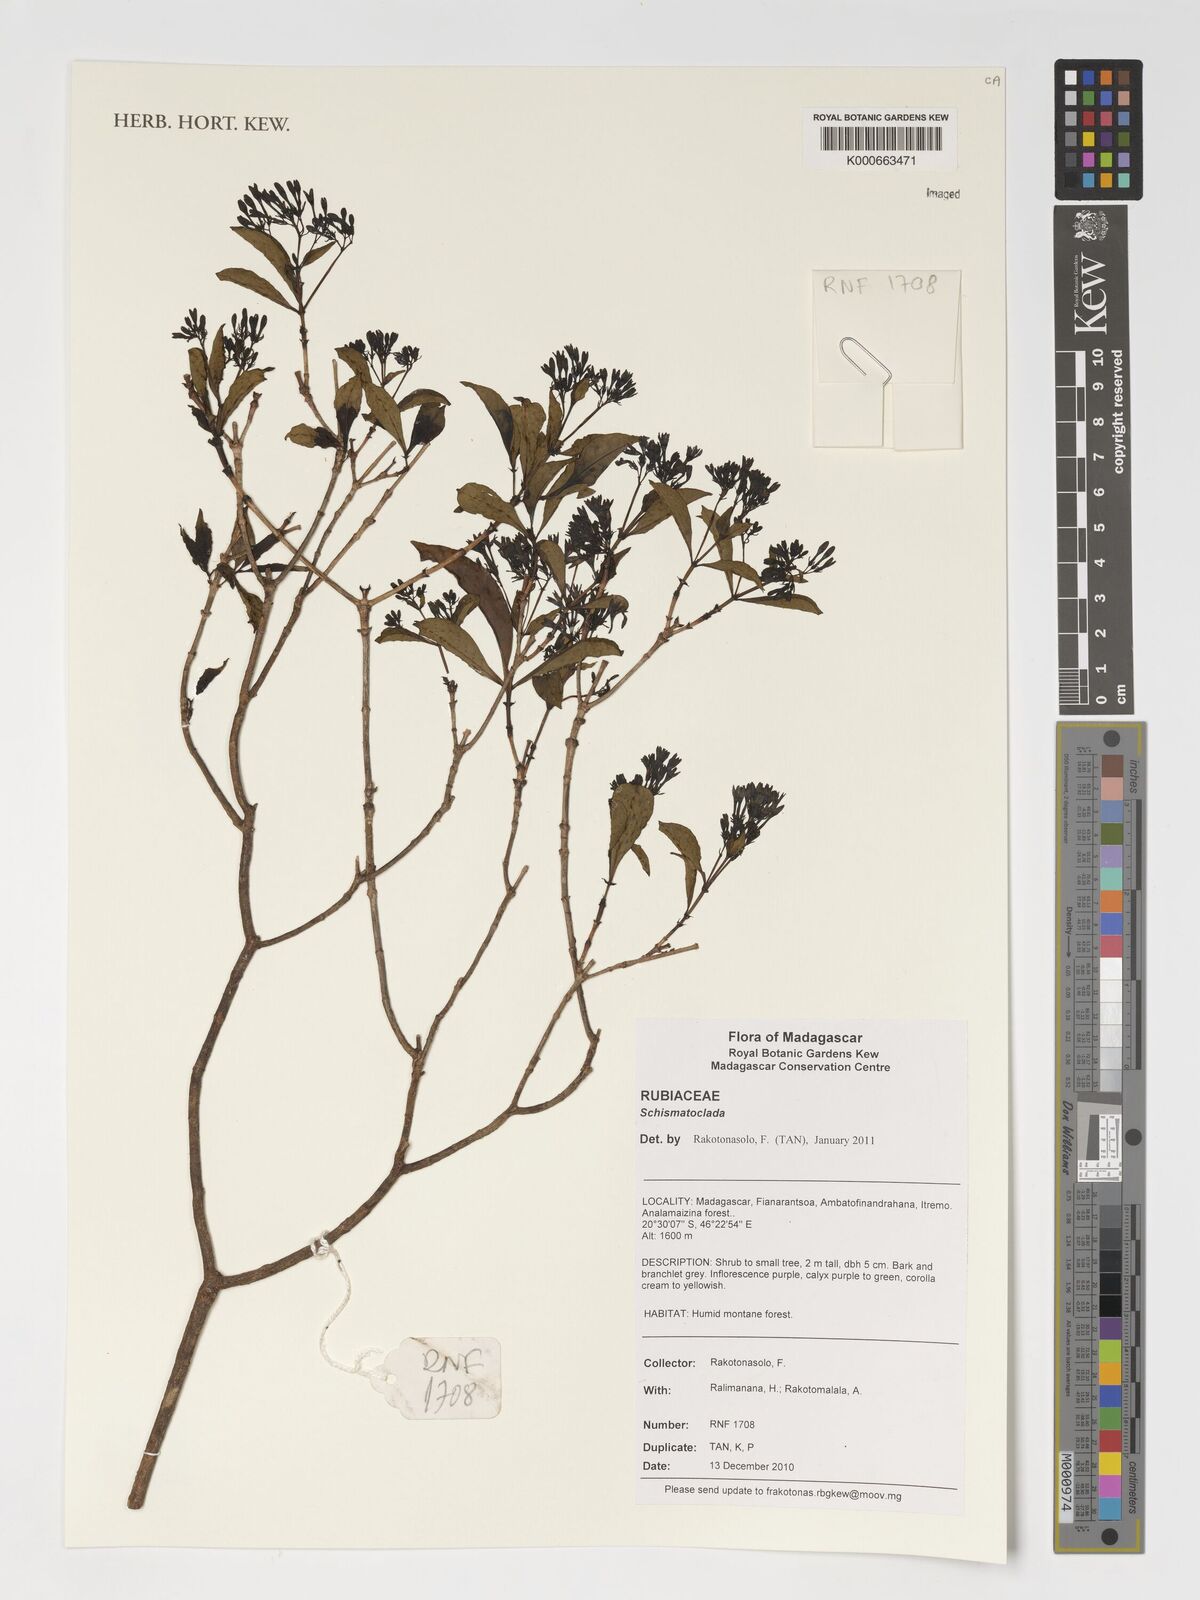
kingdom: Plantae
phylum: Tracheophyta
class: Magnoliopsida
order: Gentianales
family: Rubiaceae
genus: Schismatoclada
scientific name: Schismatoclada
